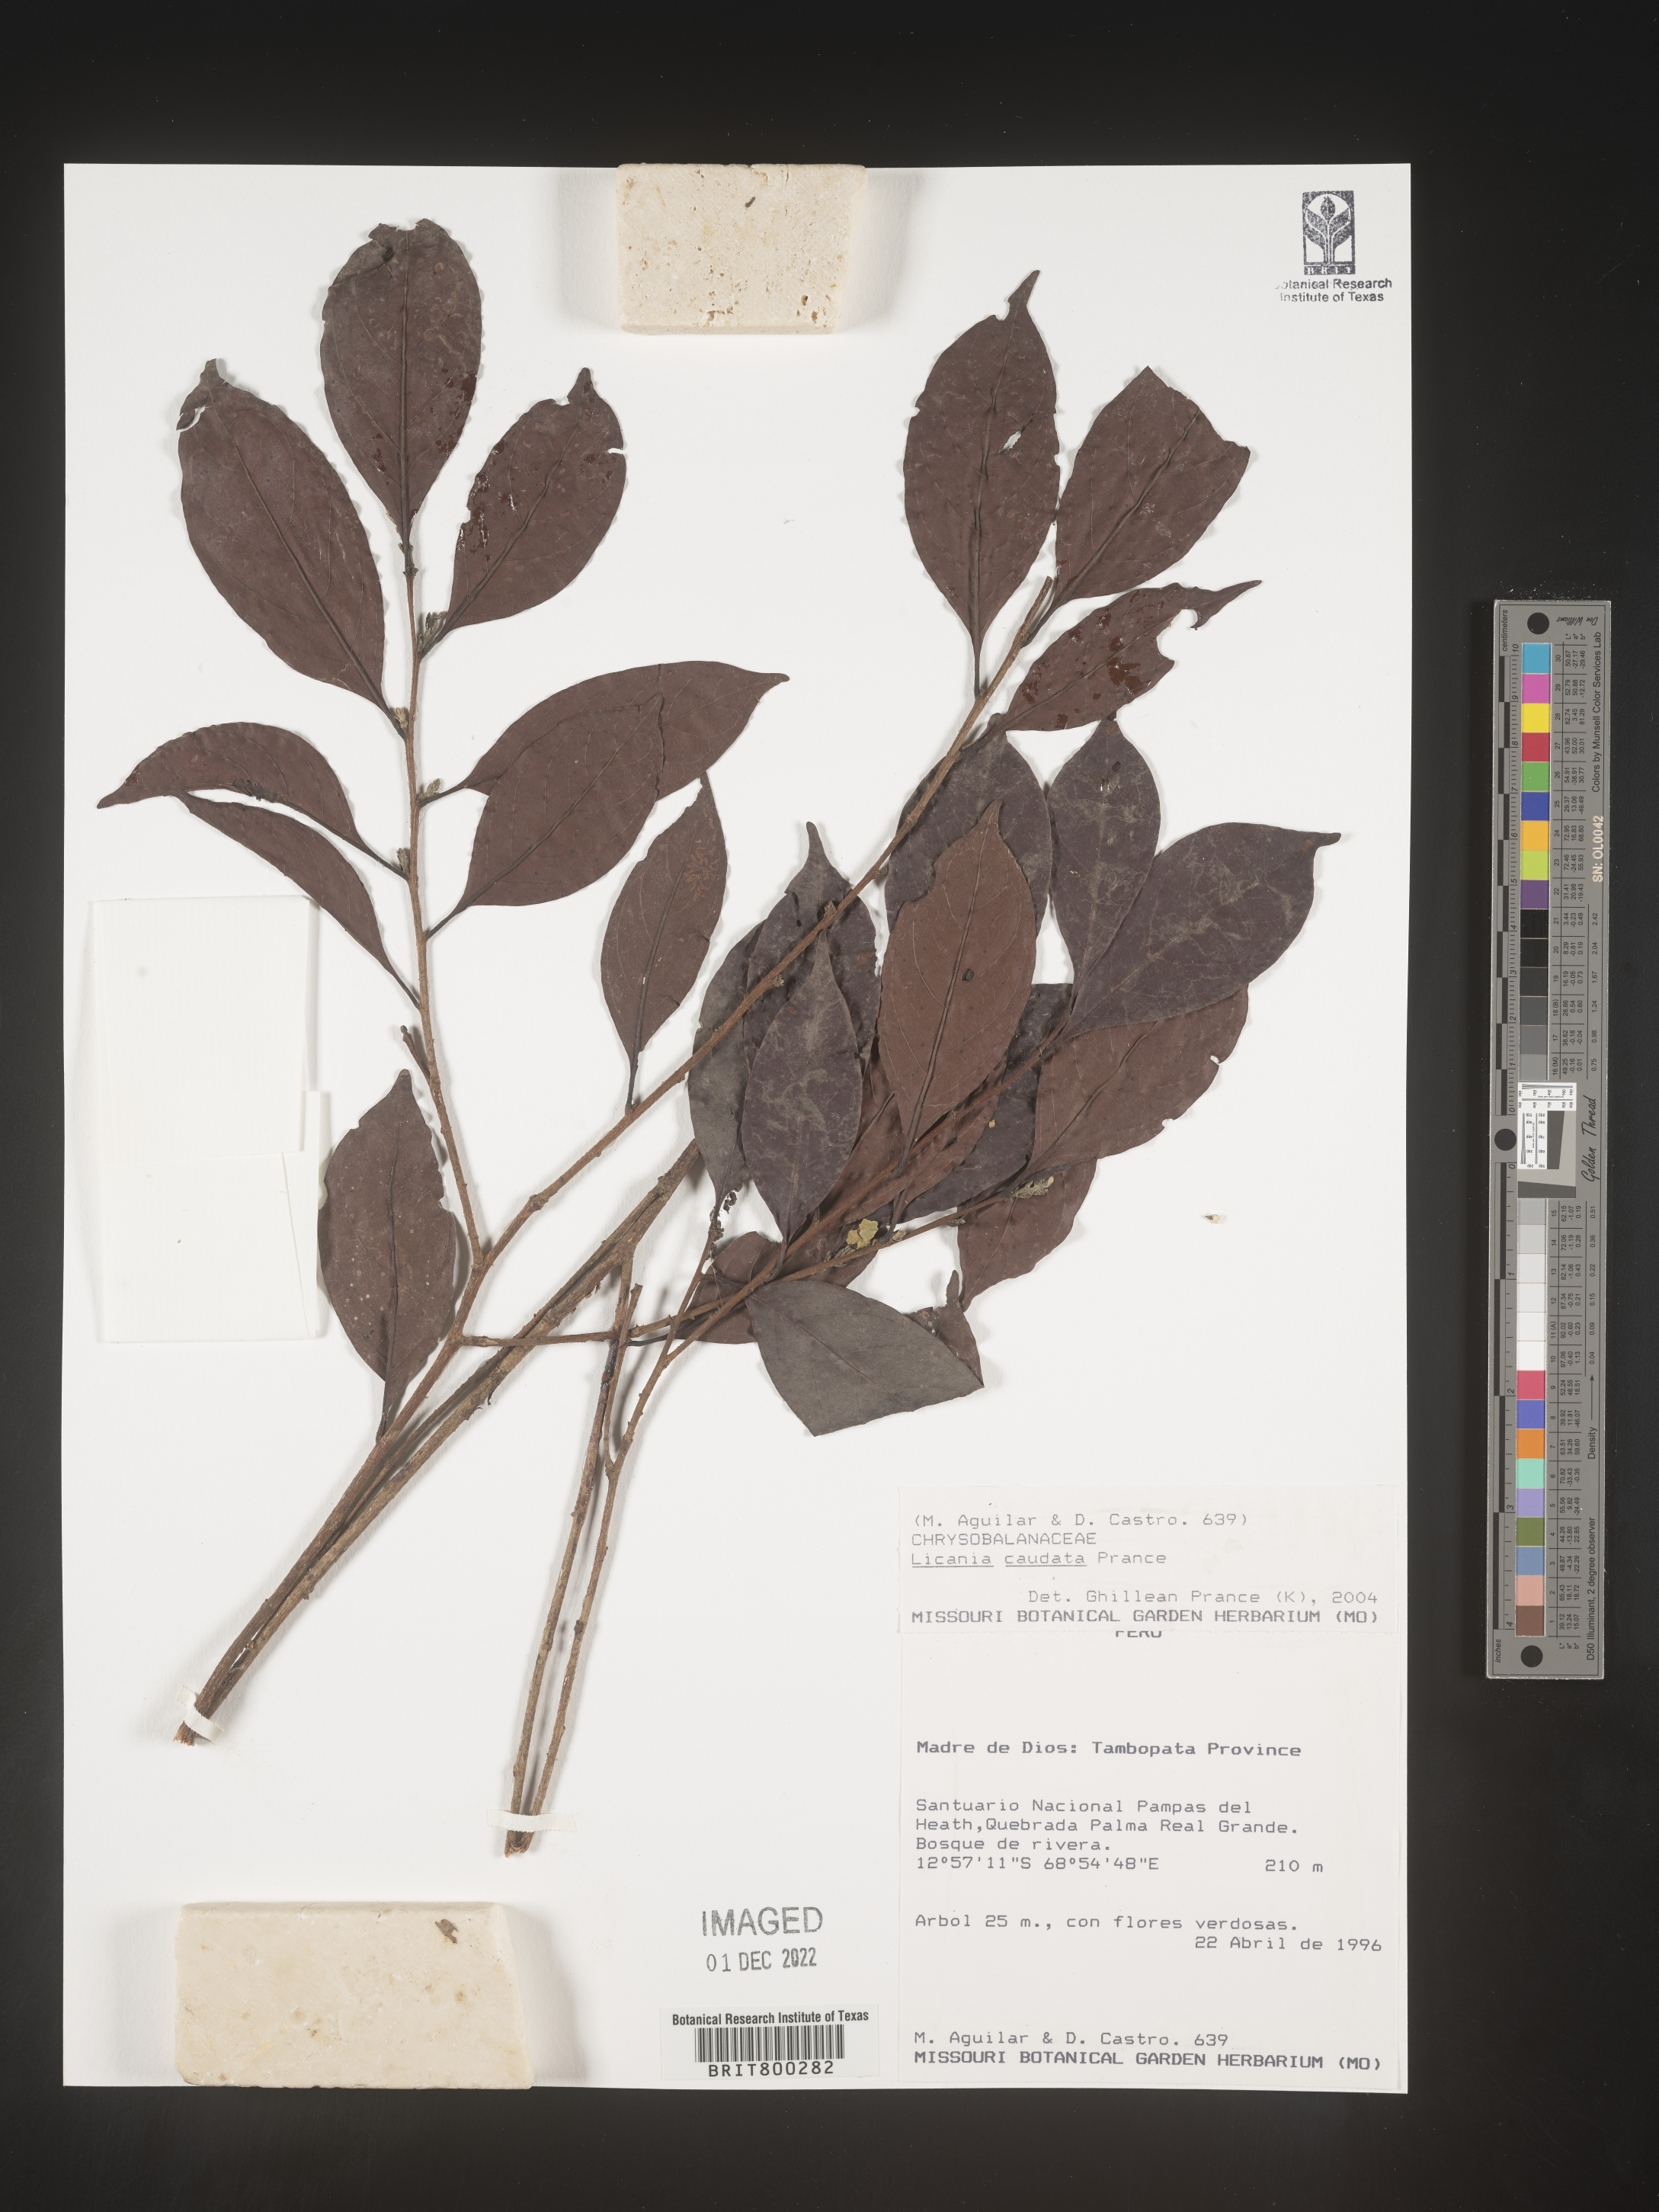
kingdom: Plantae
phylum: Tracheophyta
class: Magnoliopsida
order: Malpighiales
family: Chrysobalanaceae
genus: Geobalanus
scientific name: Geobalanus oblongifolius
